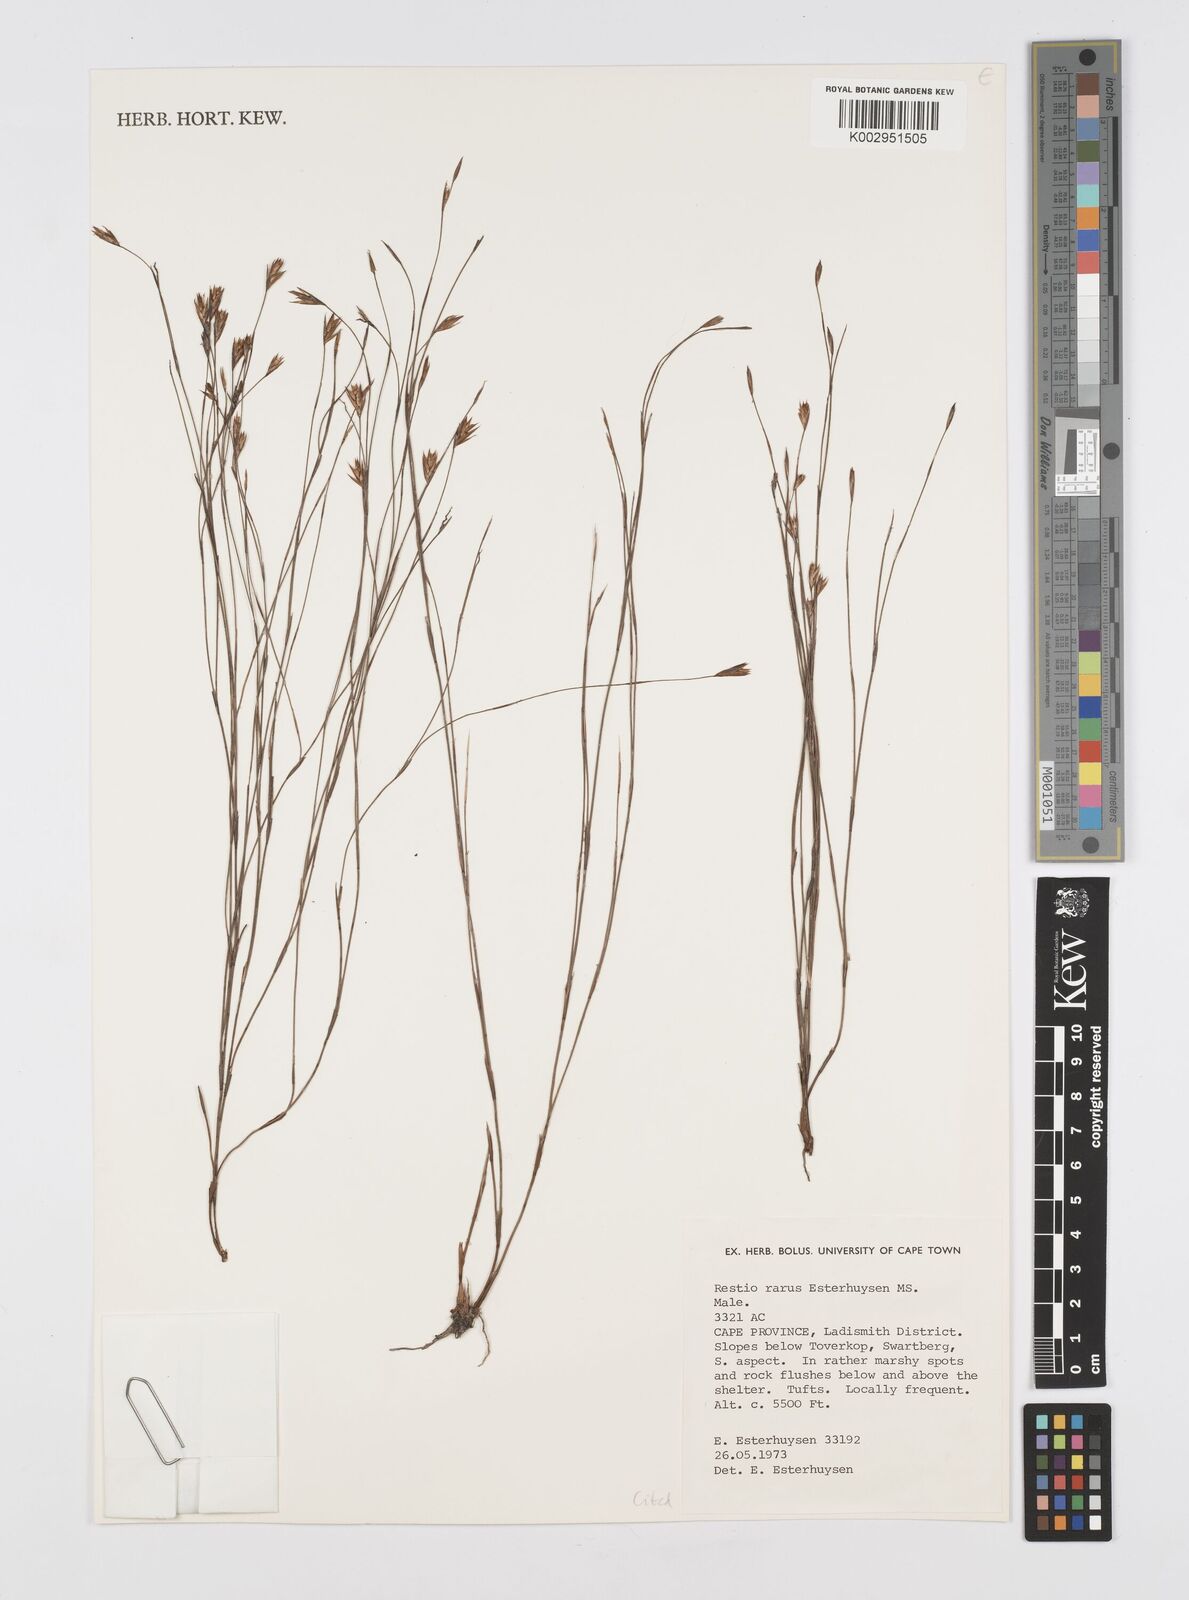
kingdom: Plantae
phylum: Tracheophyta
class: Liliopsida
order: Poales
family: Restionaceae
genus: Restio
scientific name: Restio rarus
